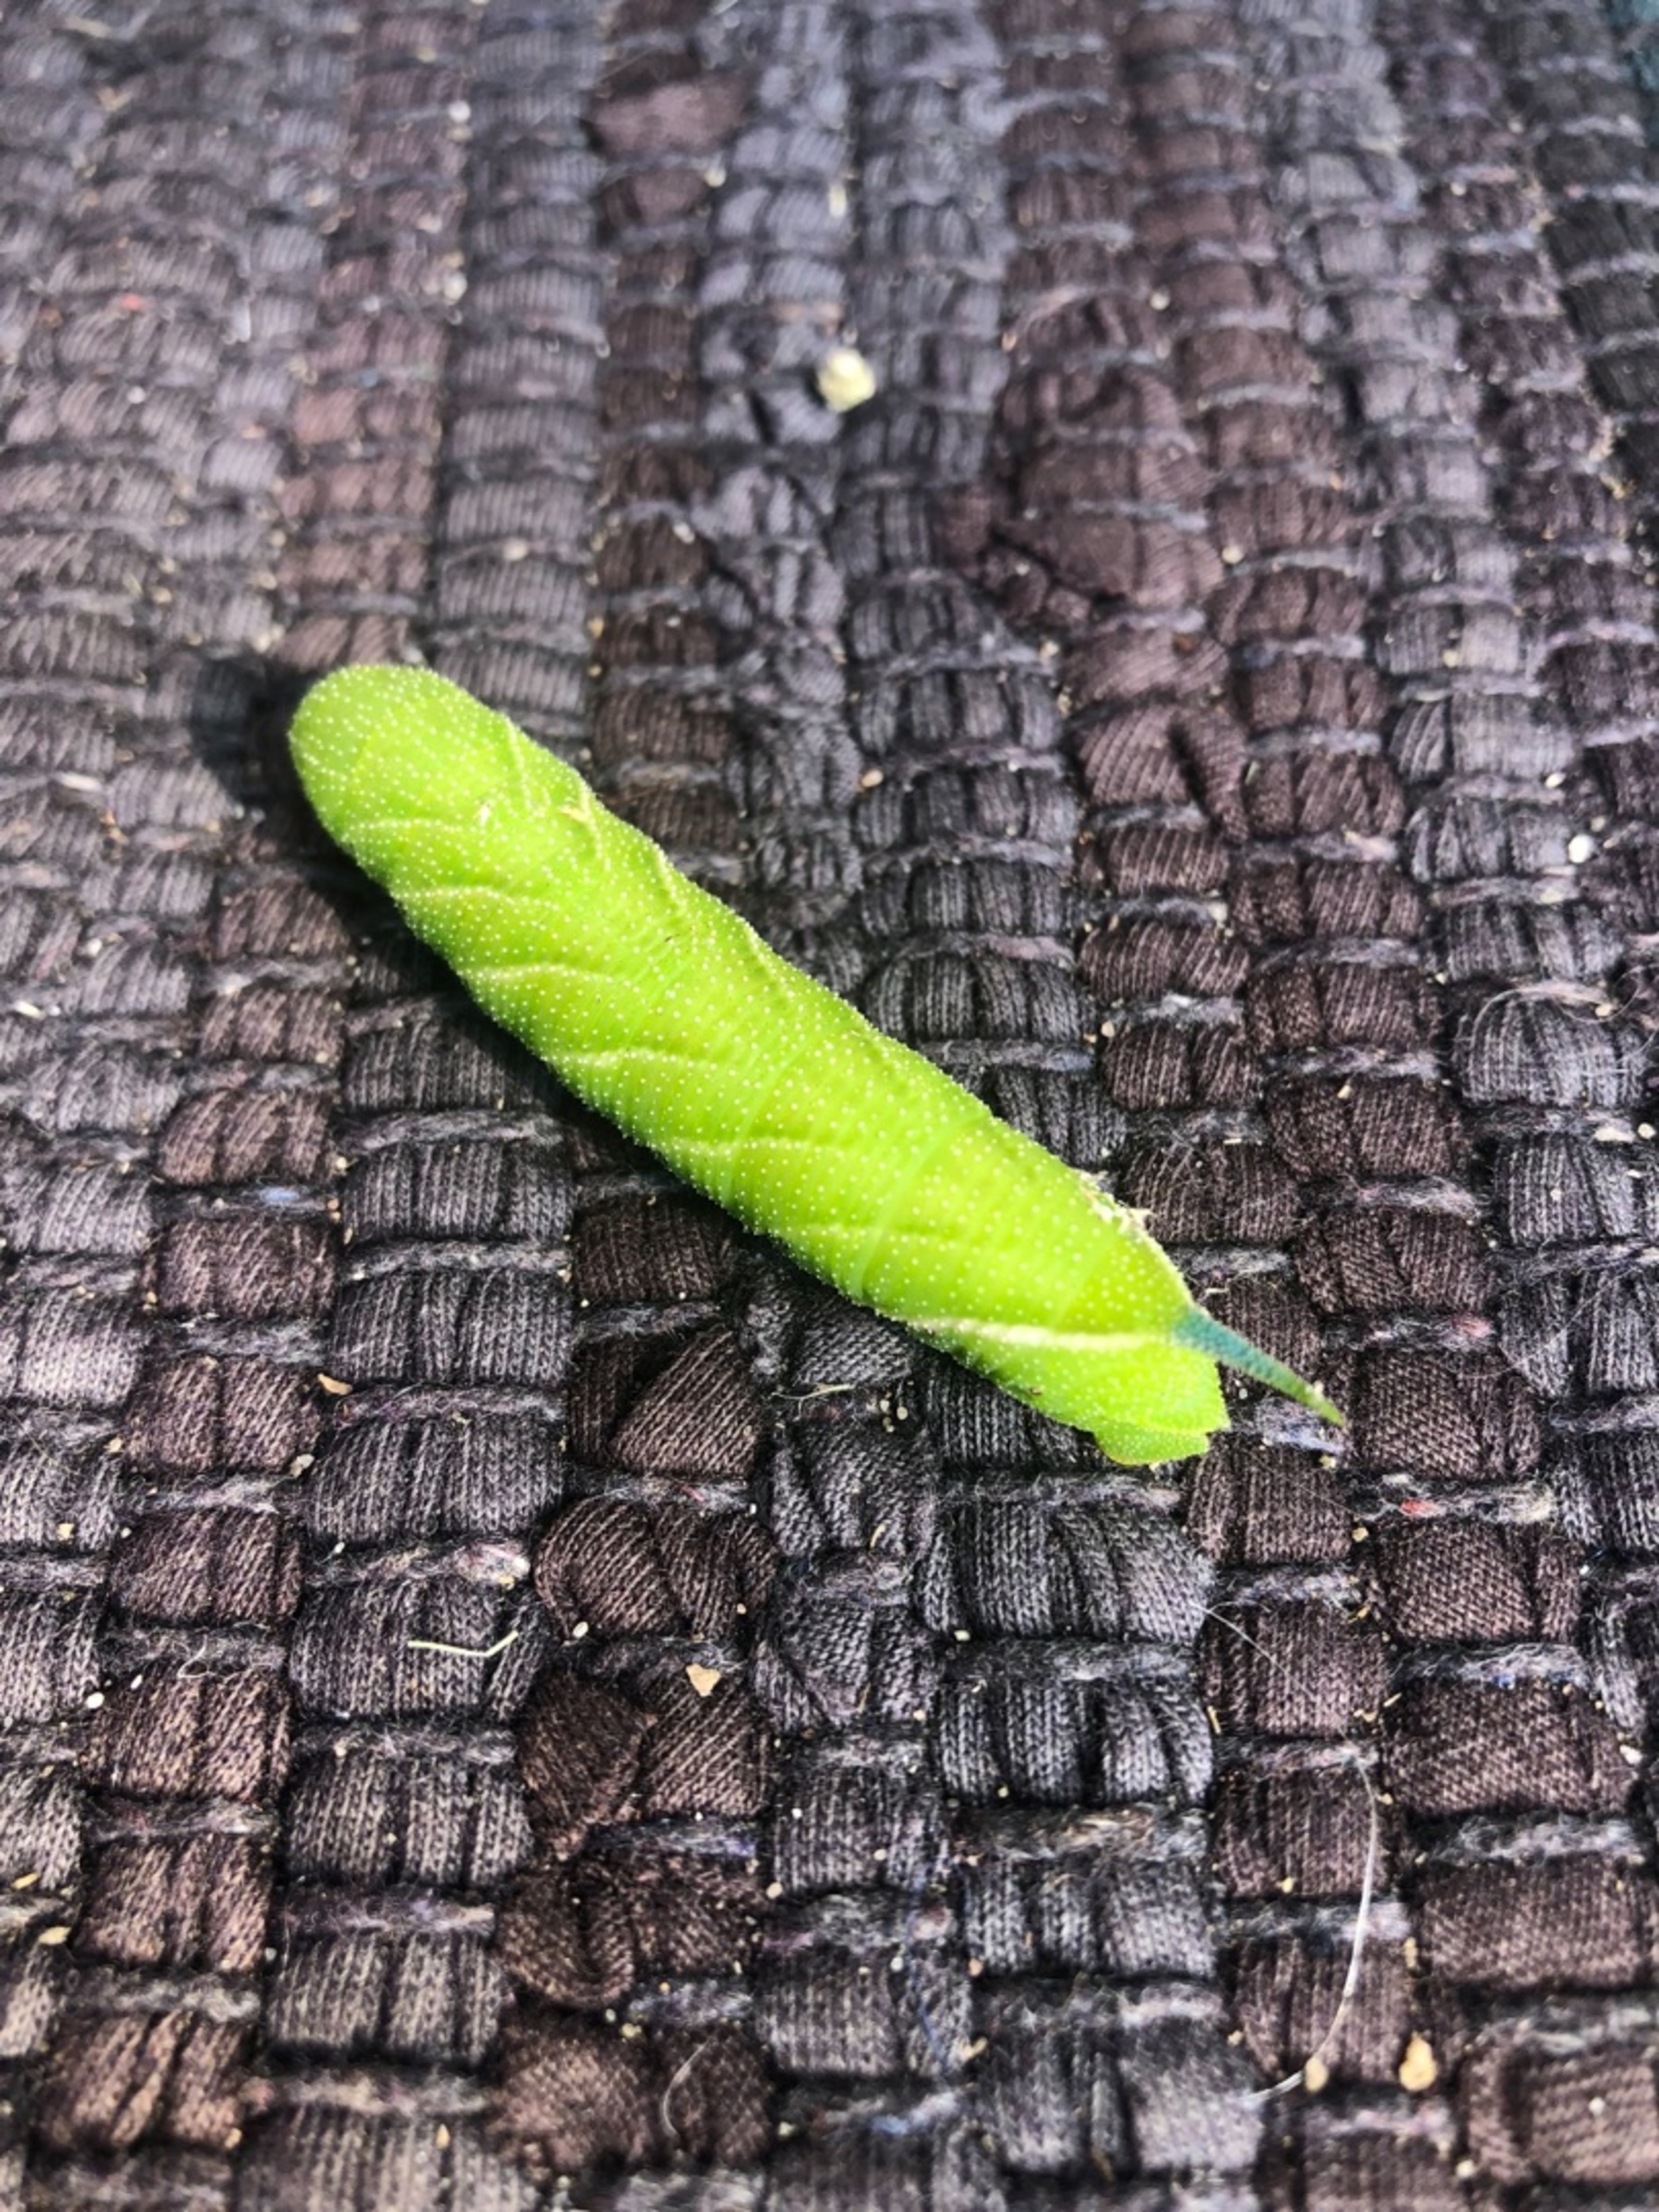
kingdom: Animalia
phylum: Arthropoda
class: Insecta
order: Lepidoptera
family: Sphingidae
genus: Mimas
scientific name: Mimas tiliae
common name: Lindesværmer
